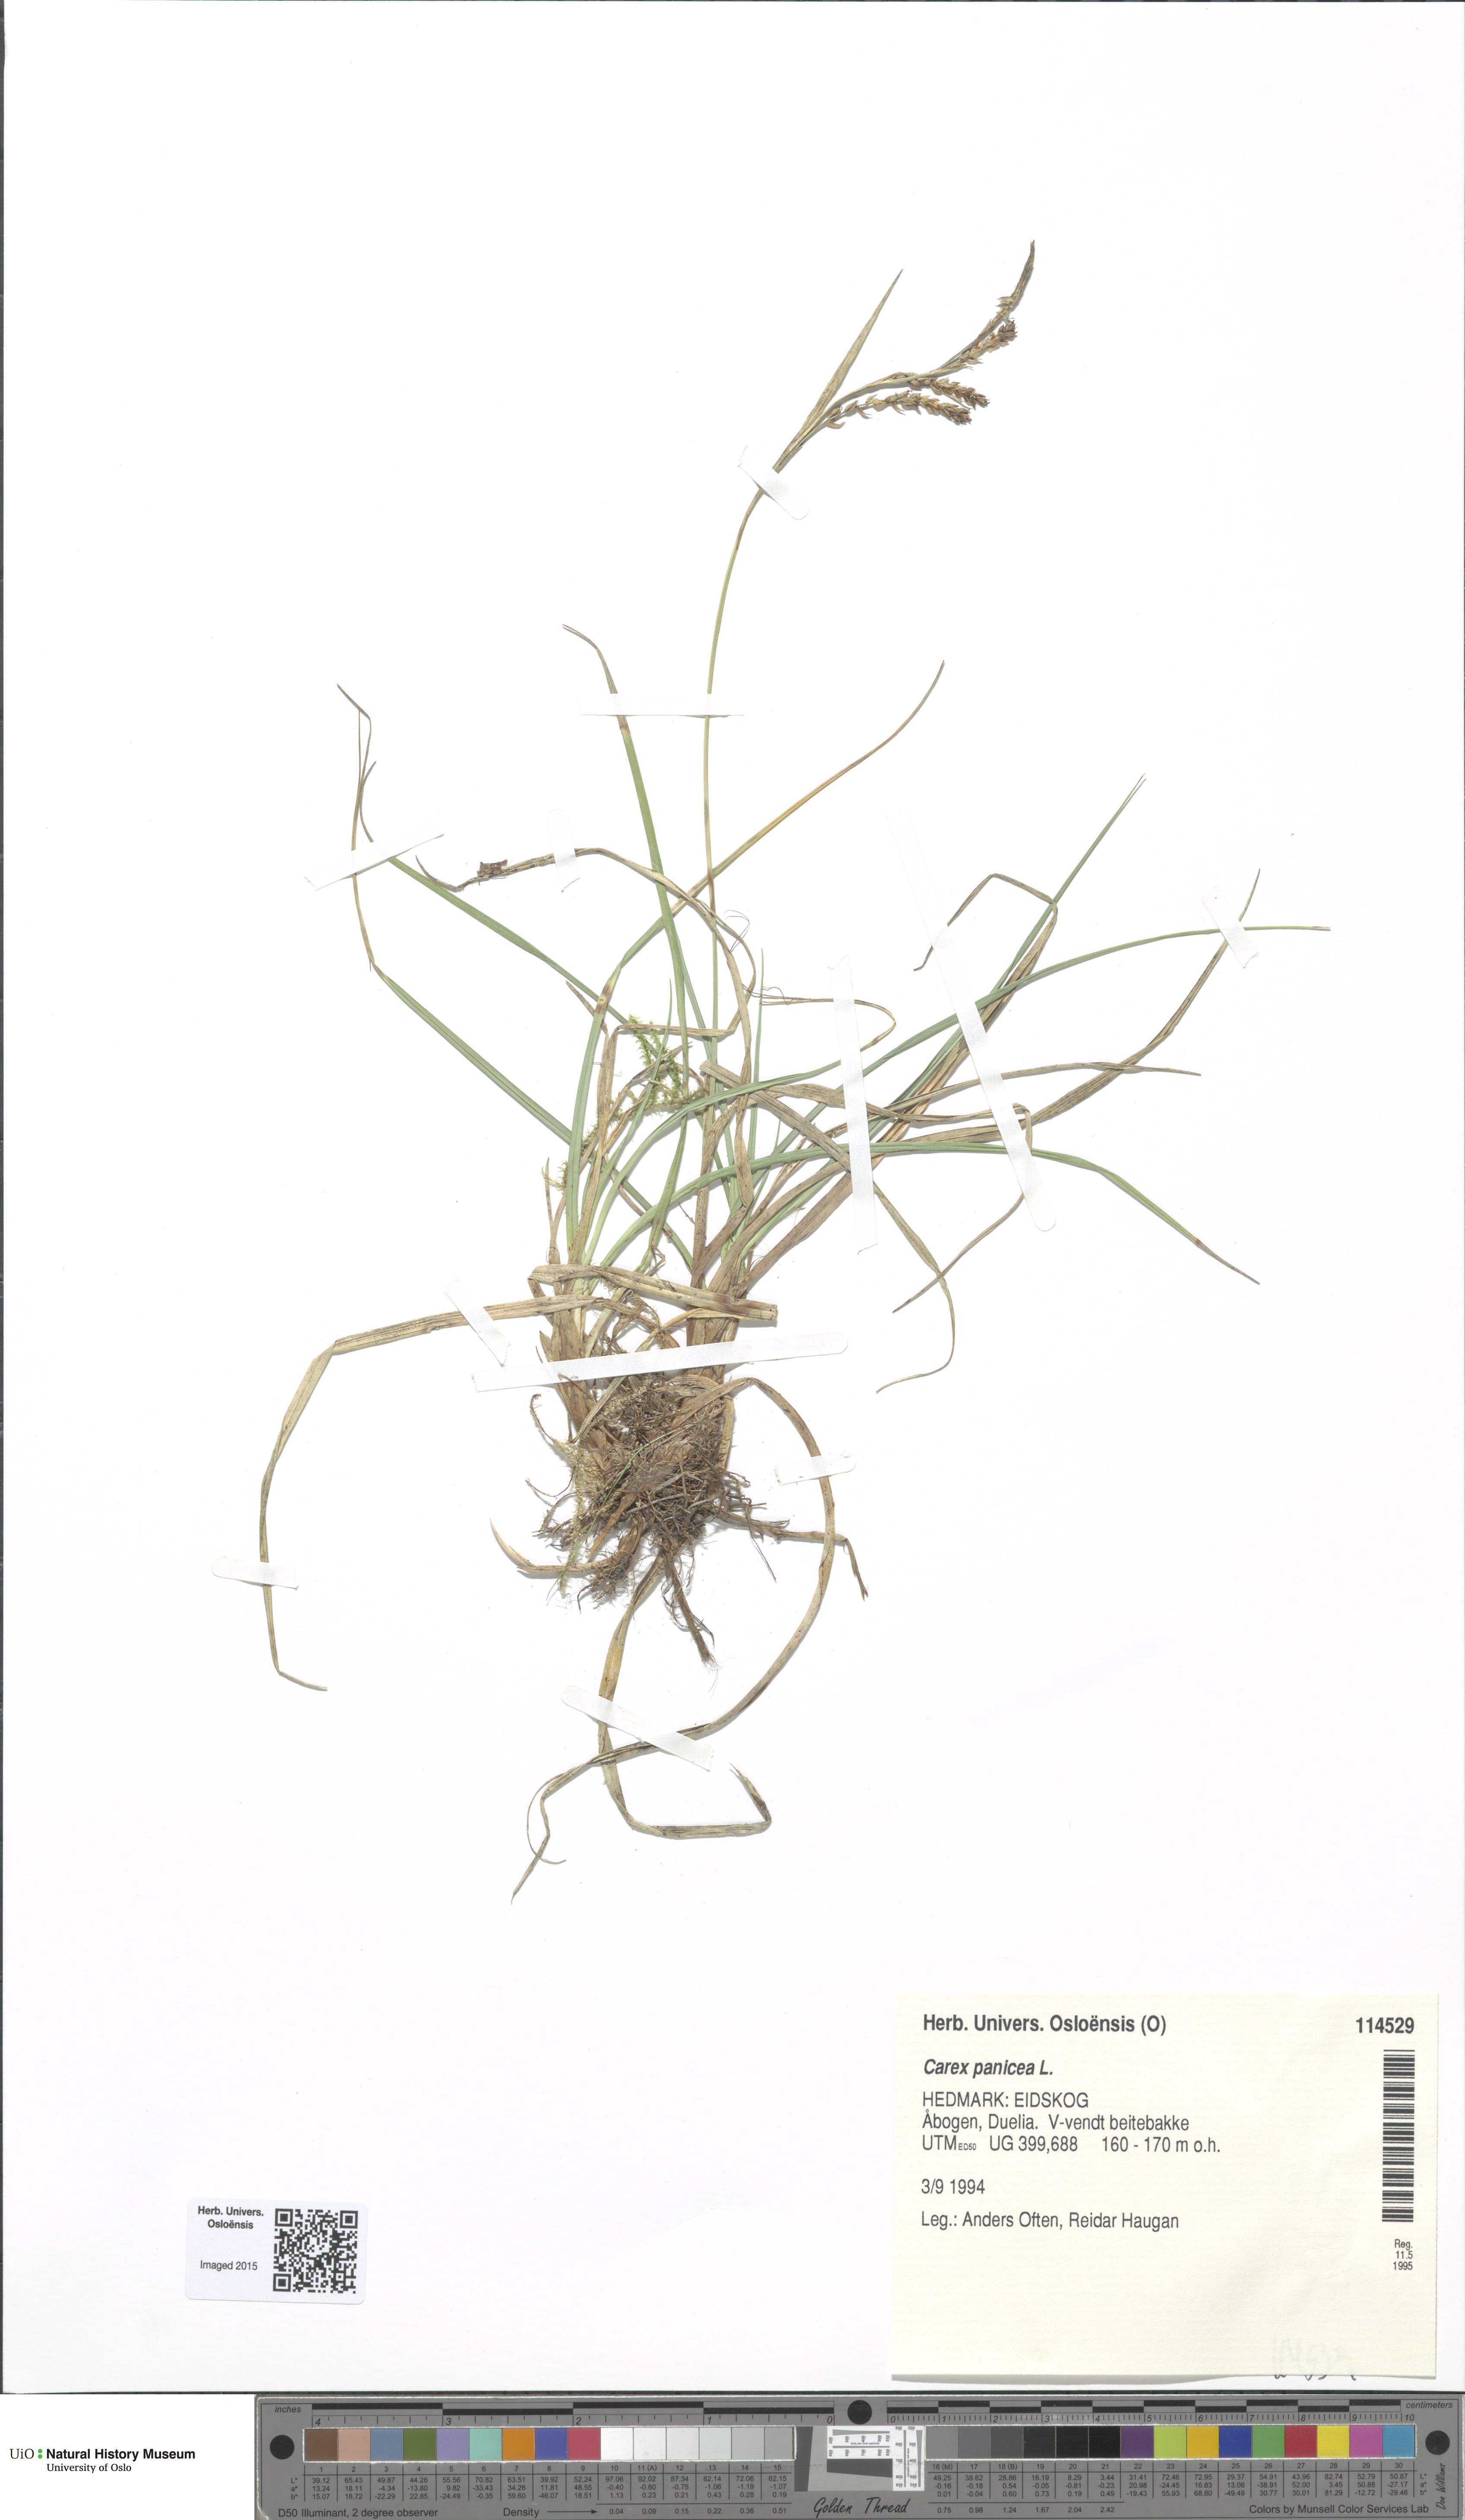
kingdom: Plantae
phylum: Tracheophyta
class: Liliopsida
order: Poales
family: Cyperaceae
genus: Carex
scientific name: Carex panicea
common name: Carnation sedge
